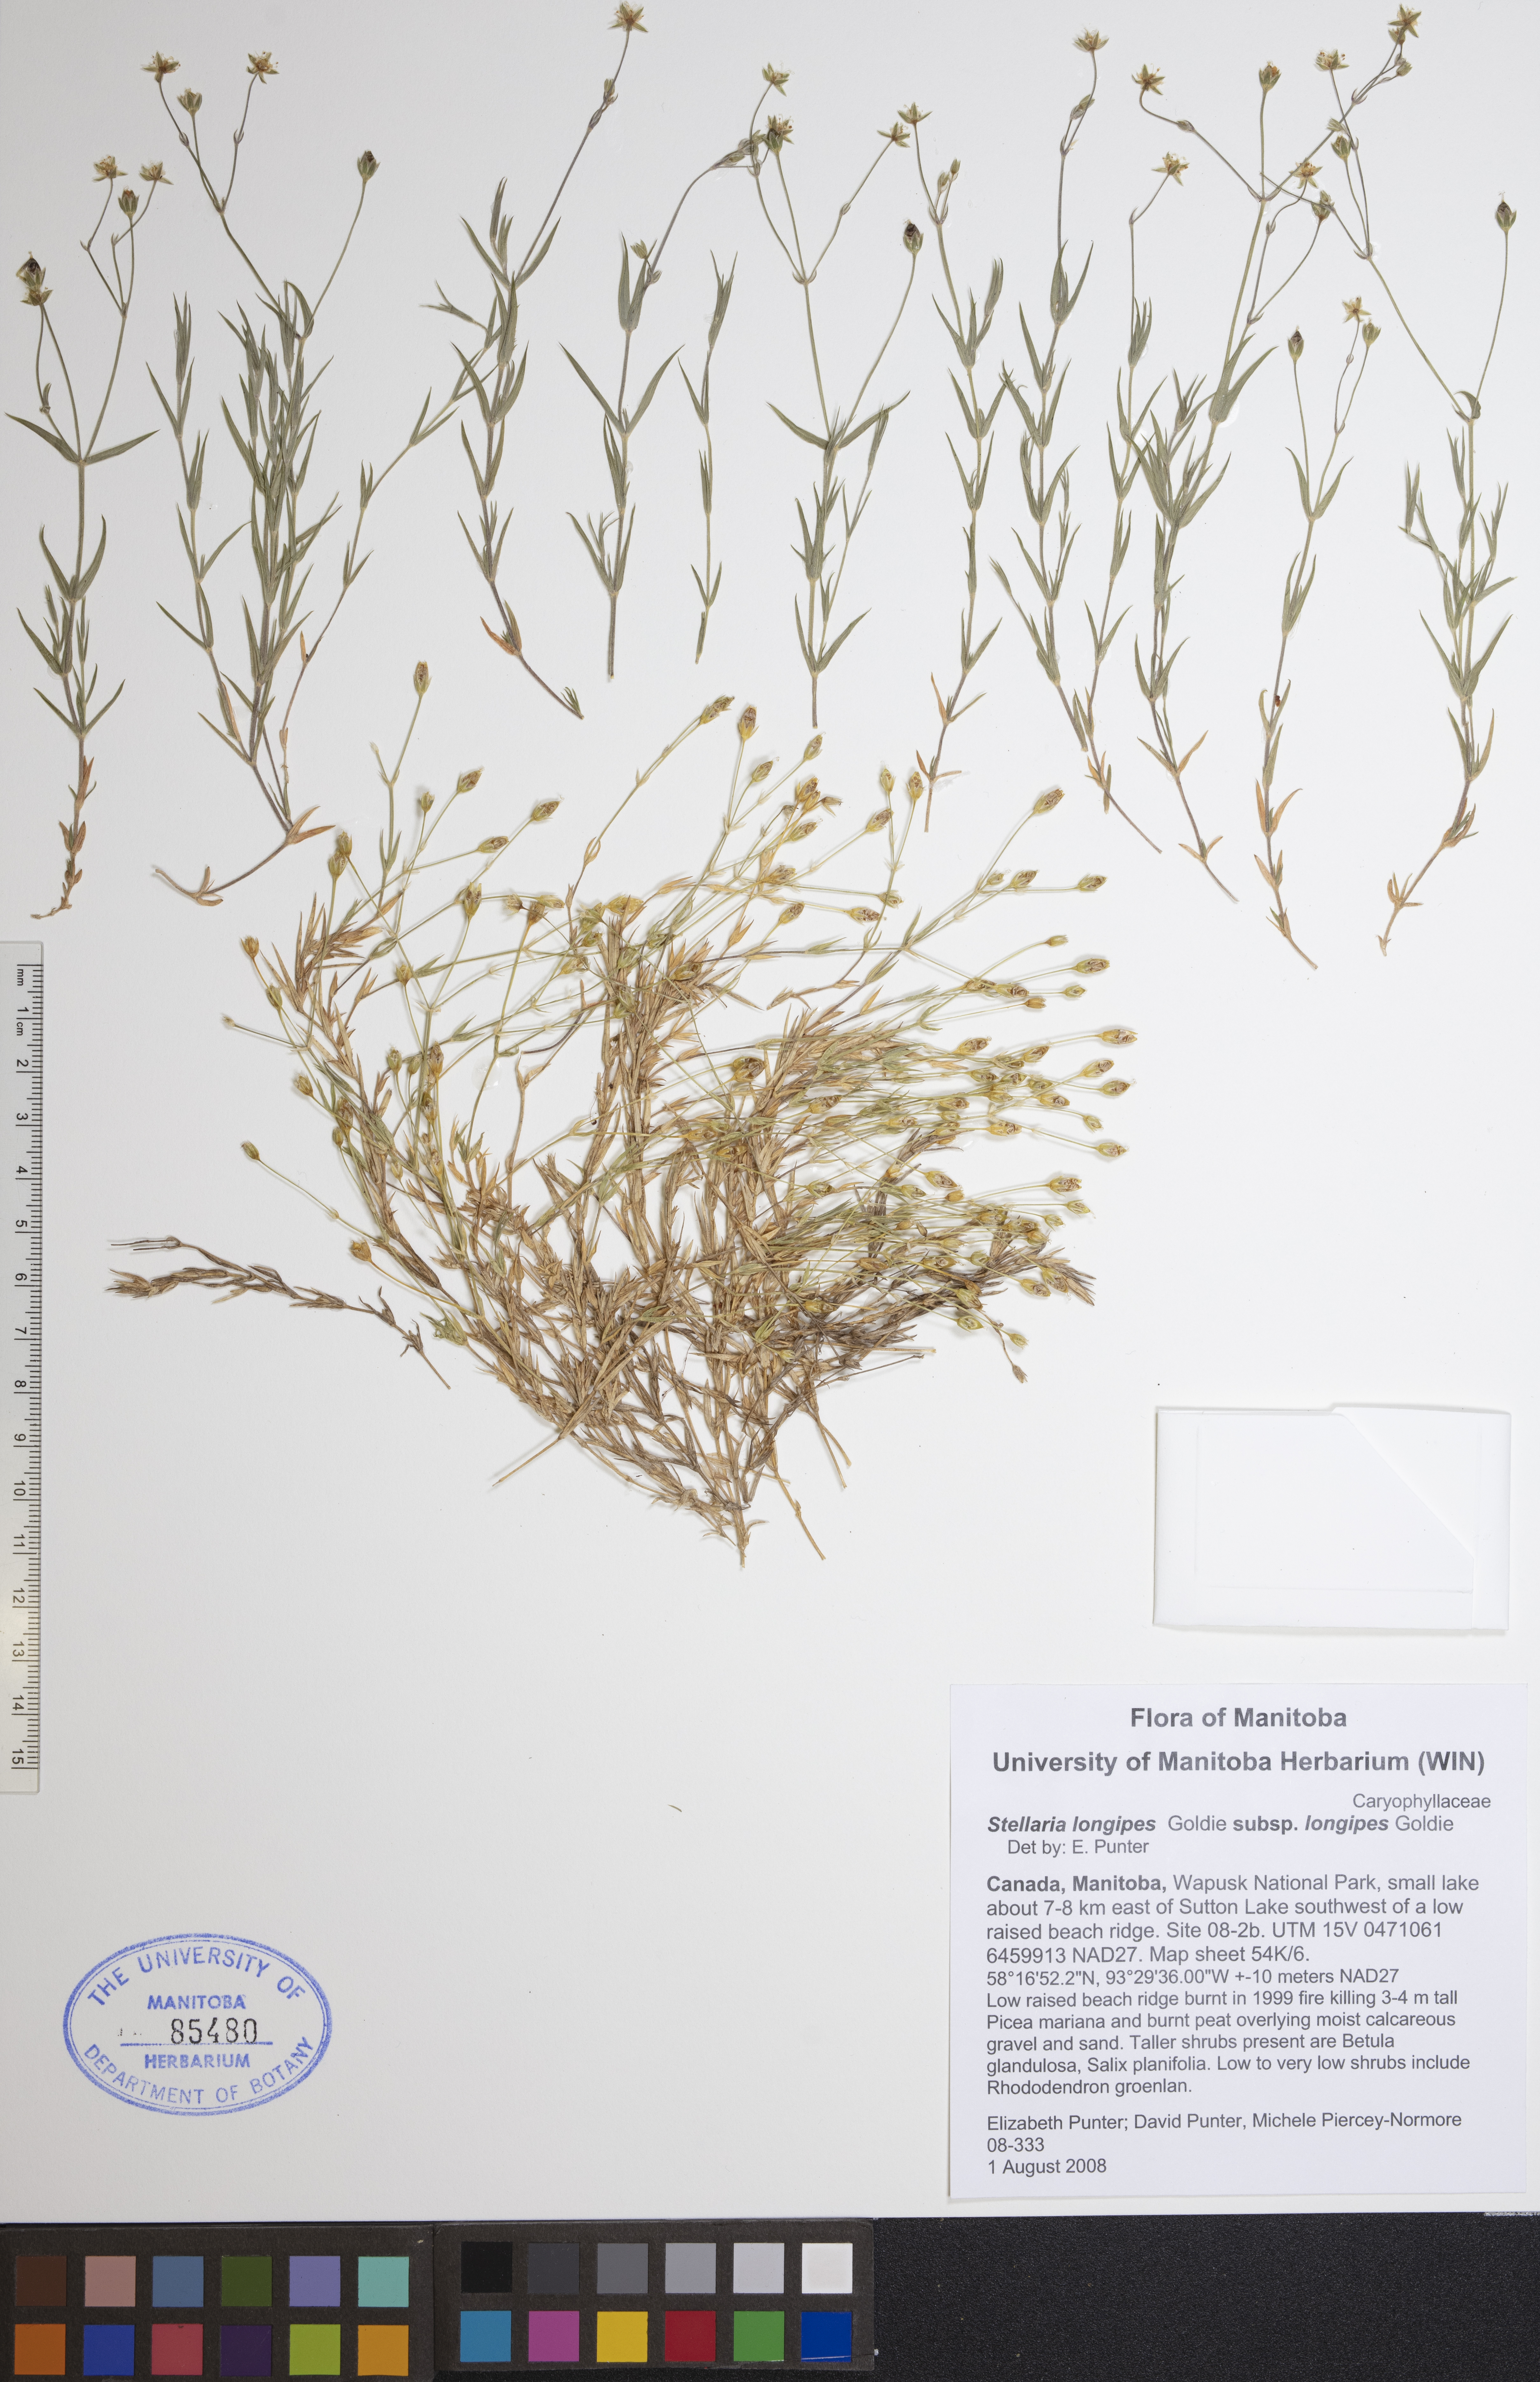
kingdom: Plantae
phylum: Tracheophyta
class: Magnoliopsida
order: Caryophyllales
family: Caryophyllaceae
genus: Stellaria
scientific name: Stellaria longipes
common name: Goldie's starwort
